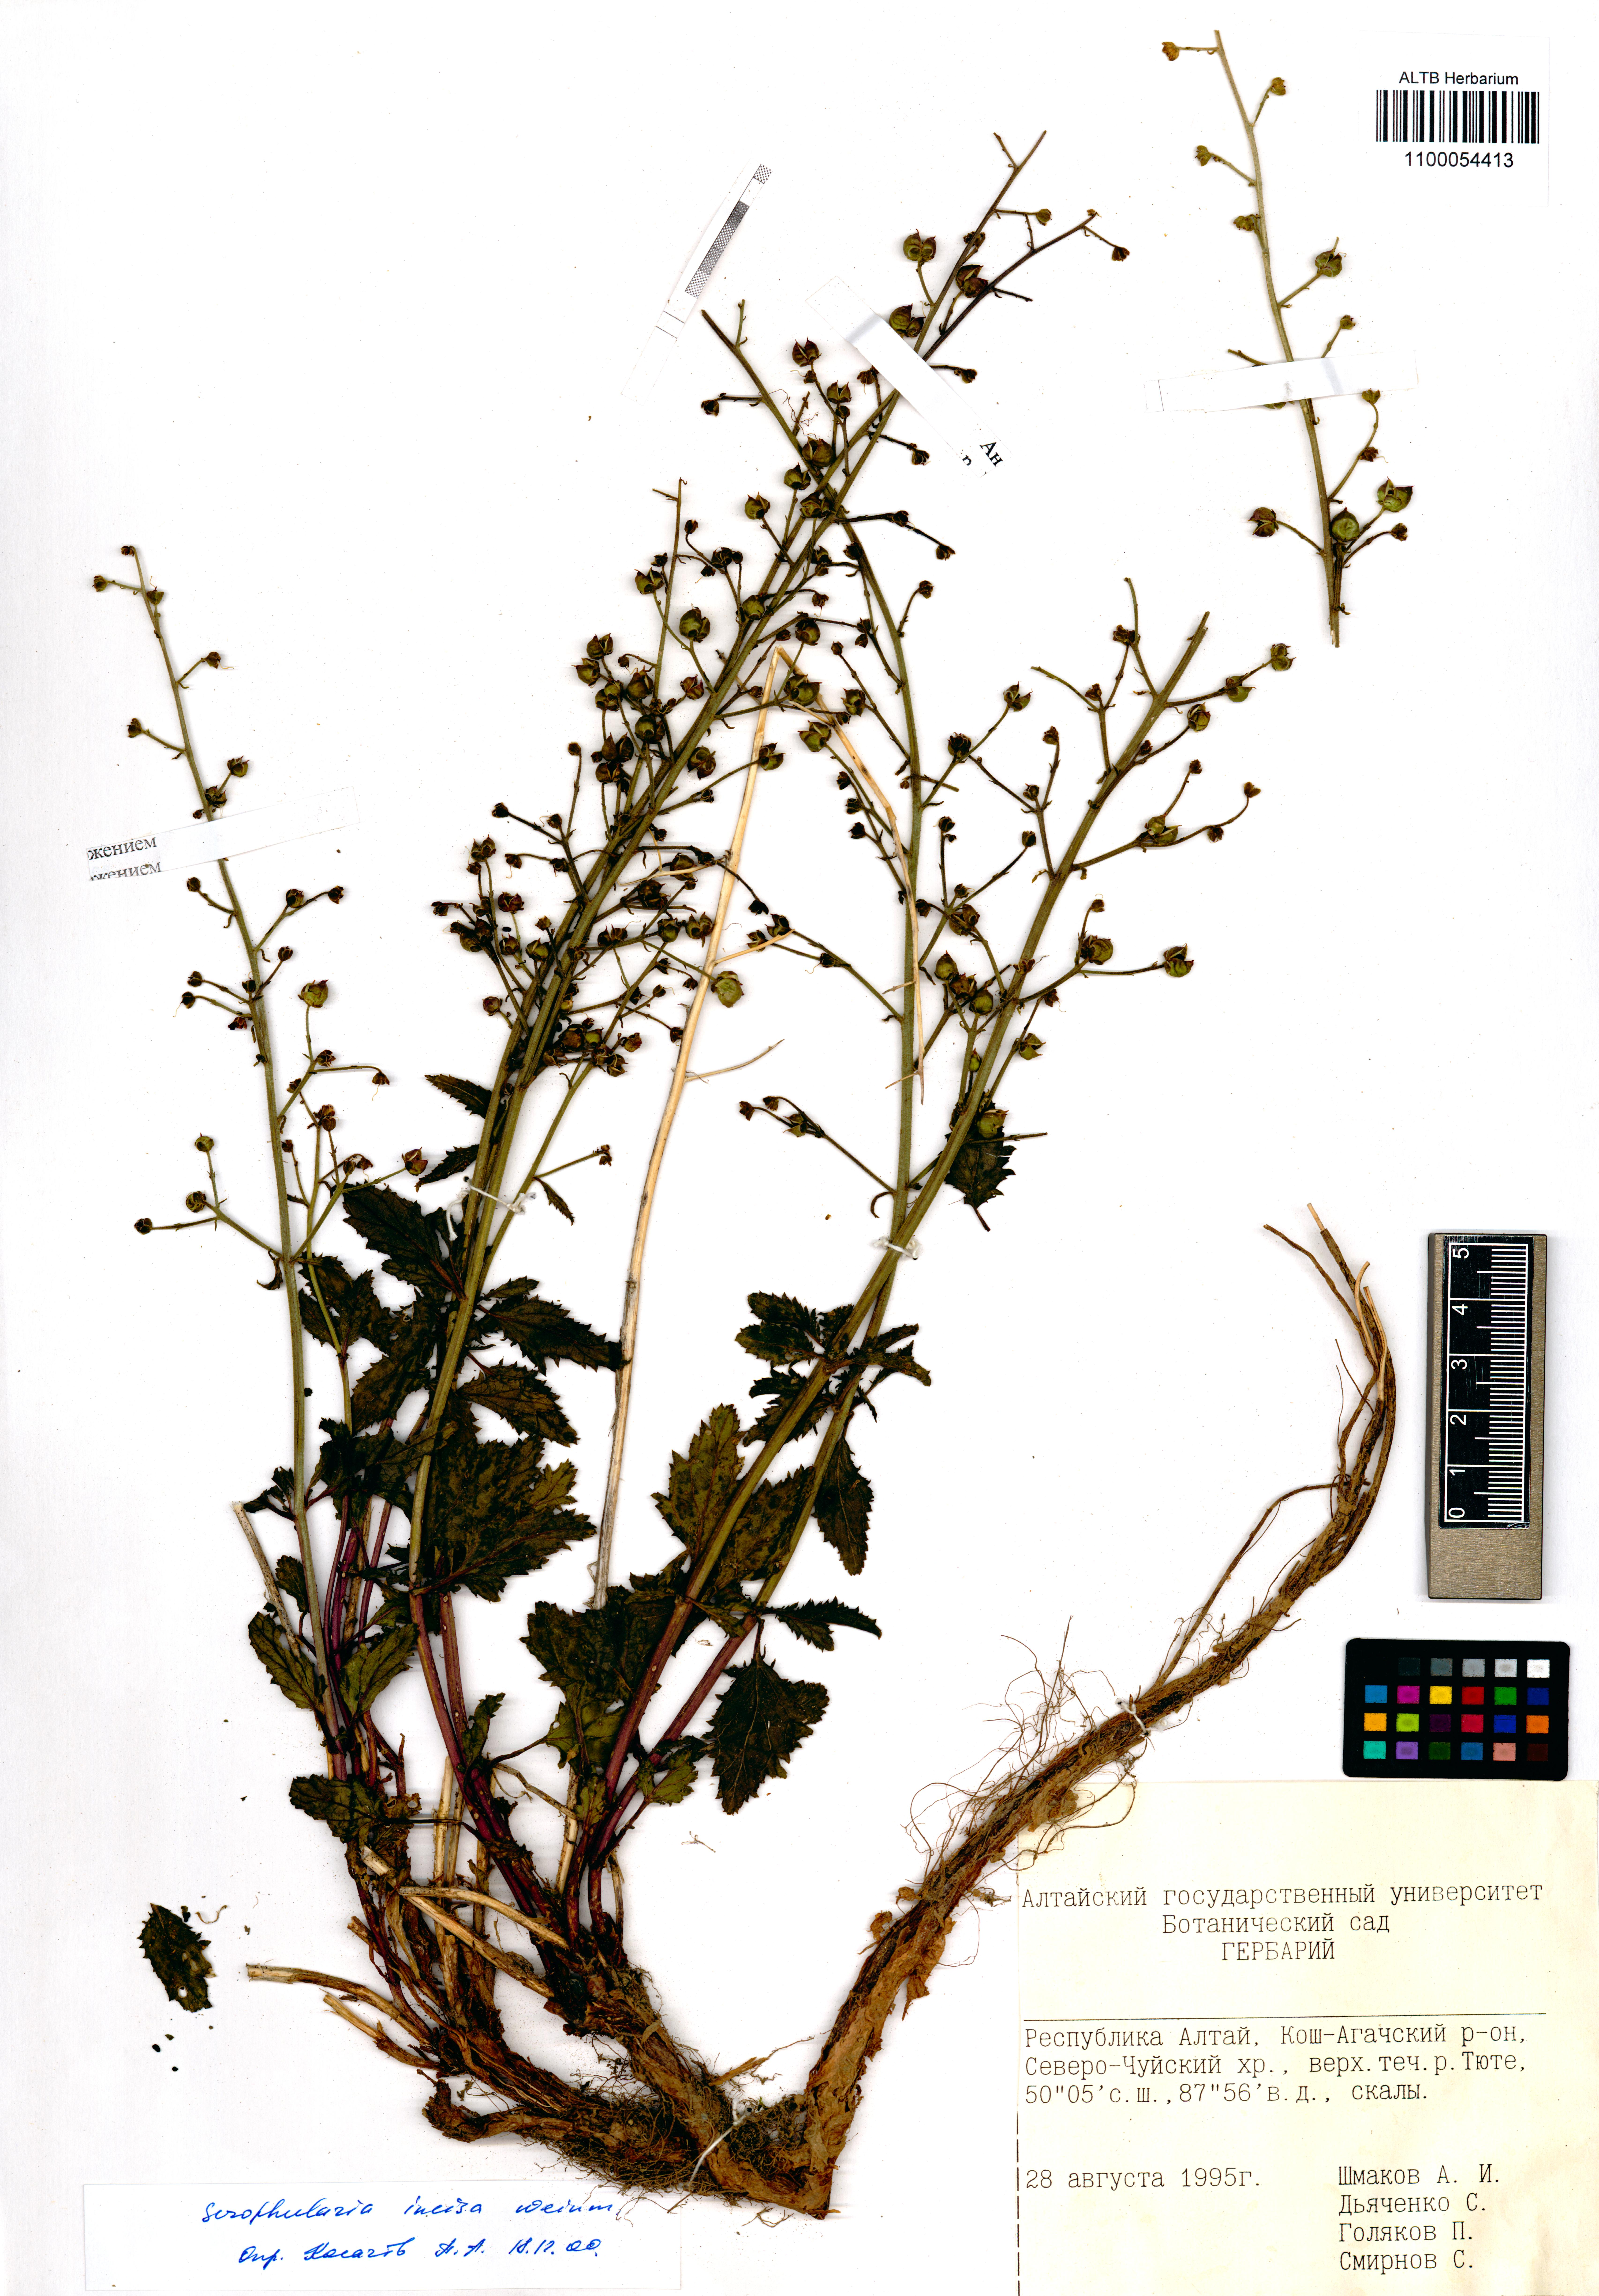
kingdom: Plantae
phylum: Tracheophyta
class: Magnoliopsida
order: Lamiales
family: Scrophulariaceae
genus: Scrophularia
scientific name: Scrophularia incisa
